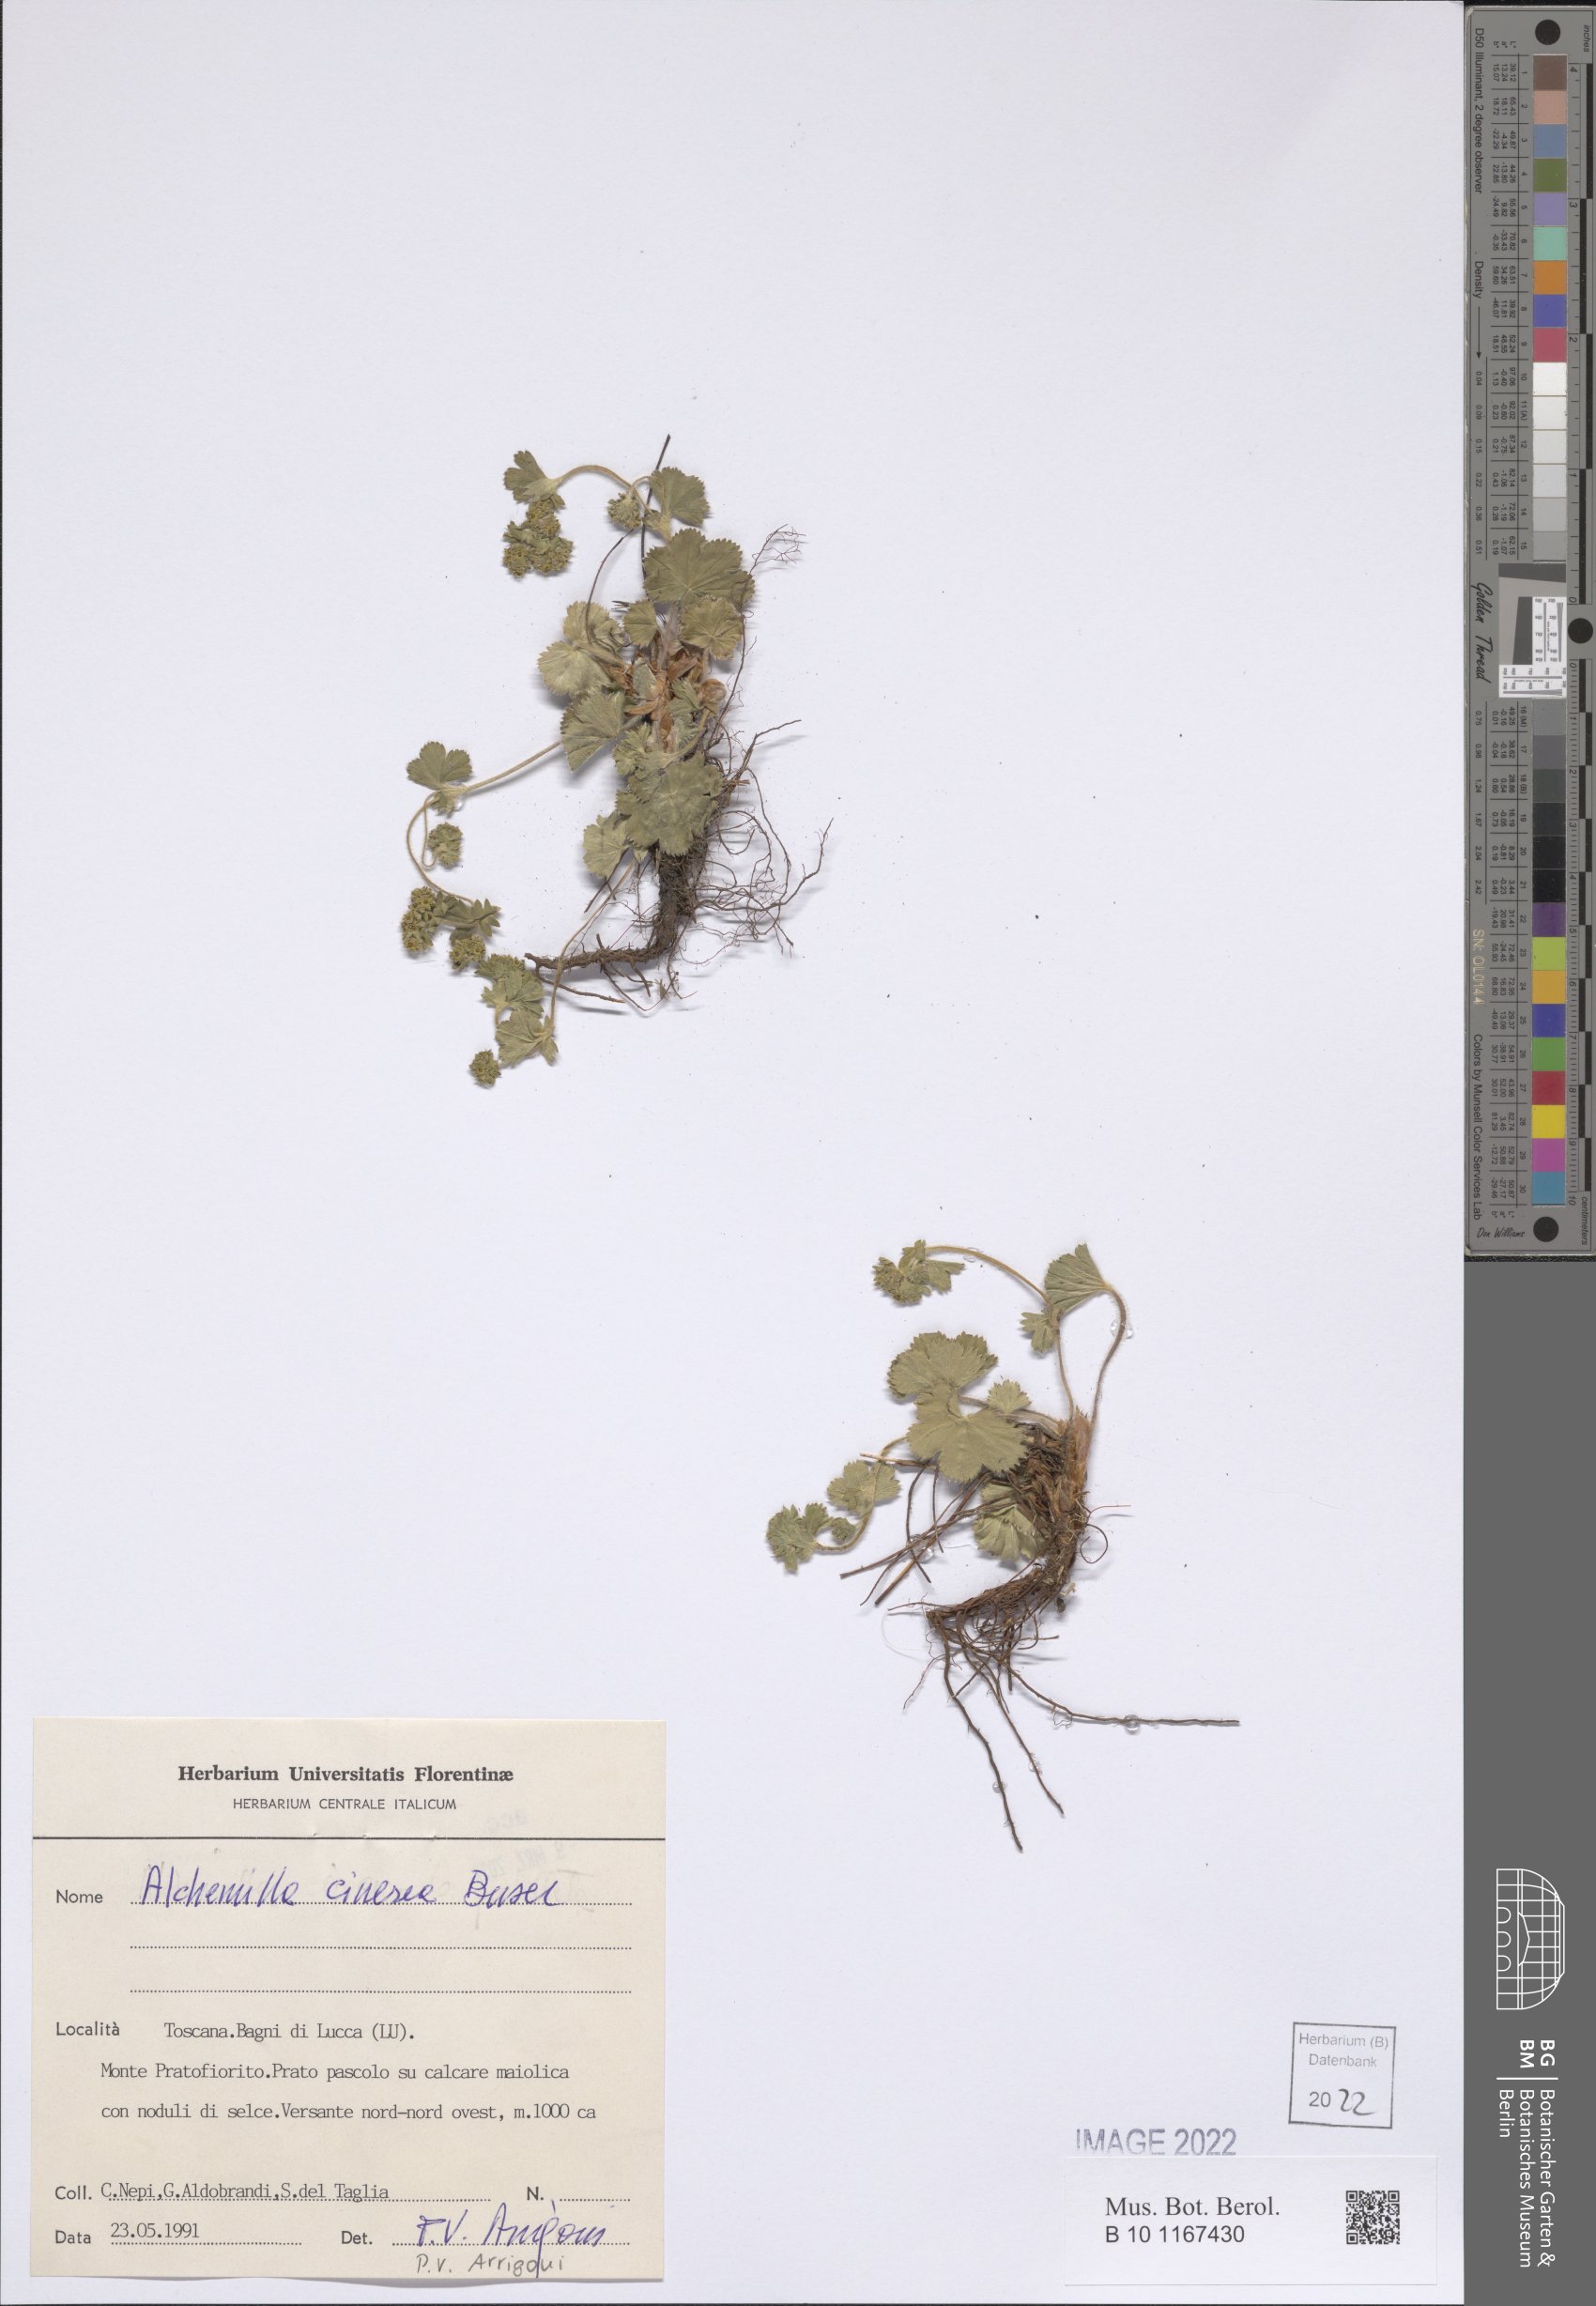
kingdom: Plantae
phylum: Tracheophyta
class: Magnoliopsida
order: Rosales
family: Rosaceae
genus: Alchemilla
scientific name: Alchemilla cinerea
